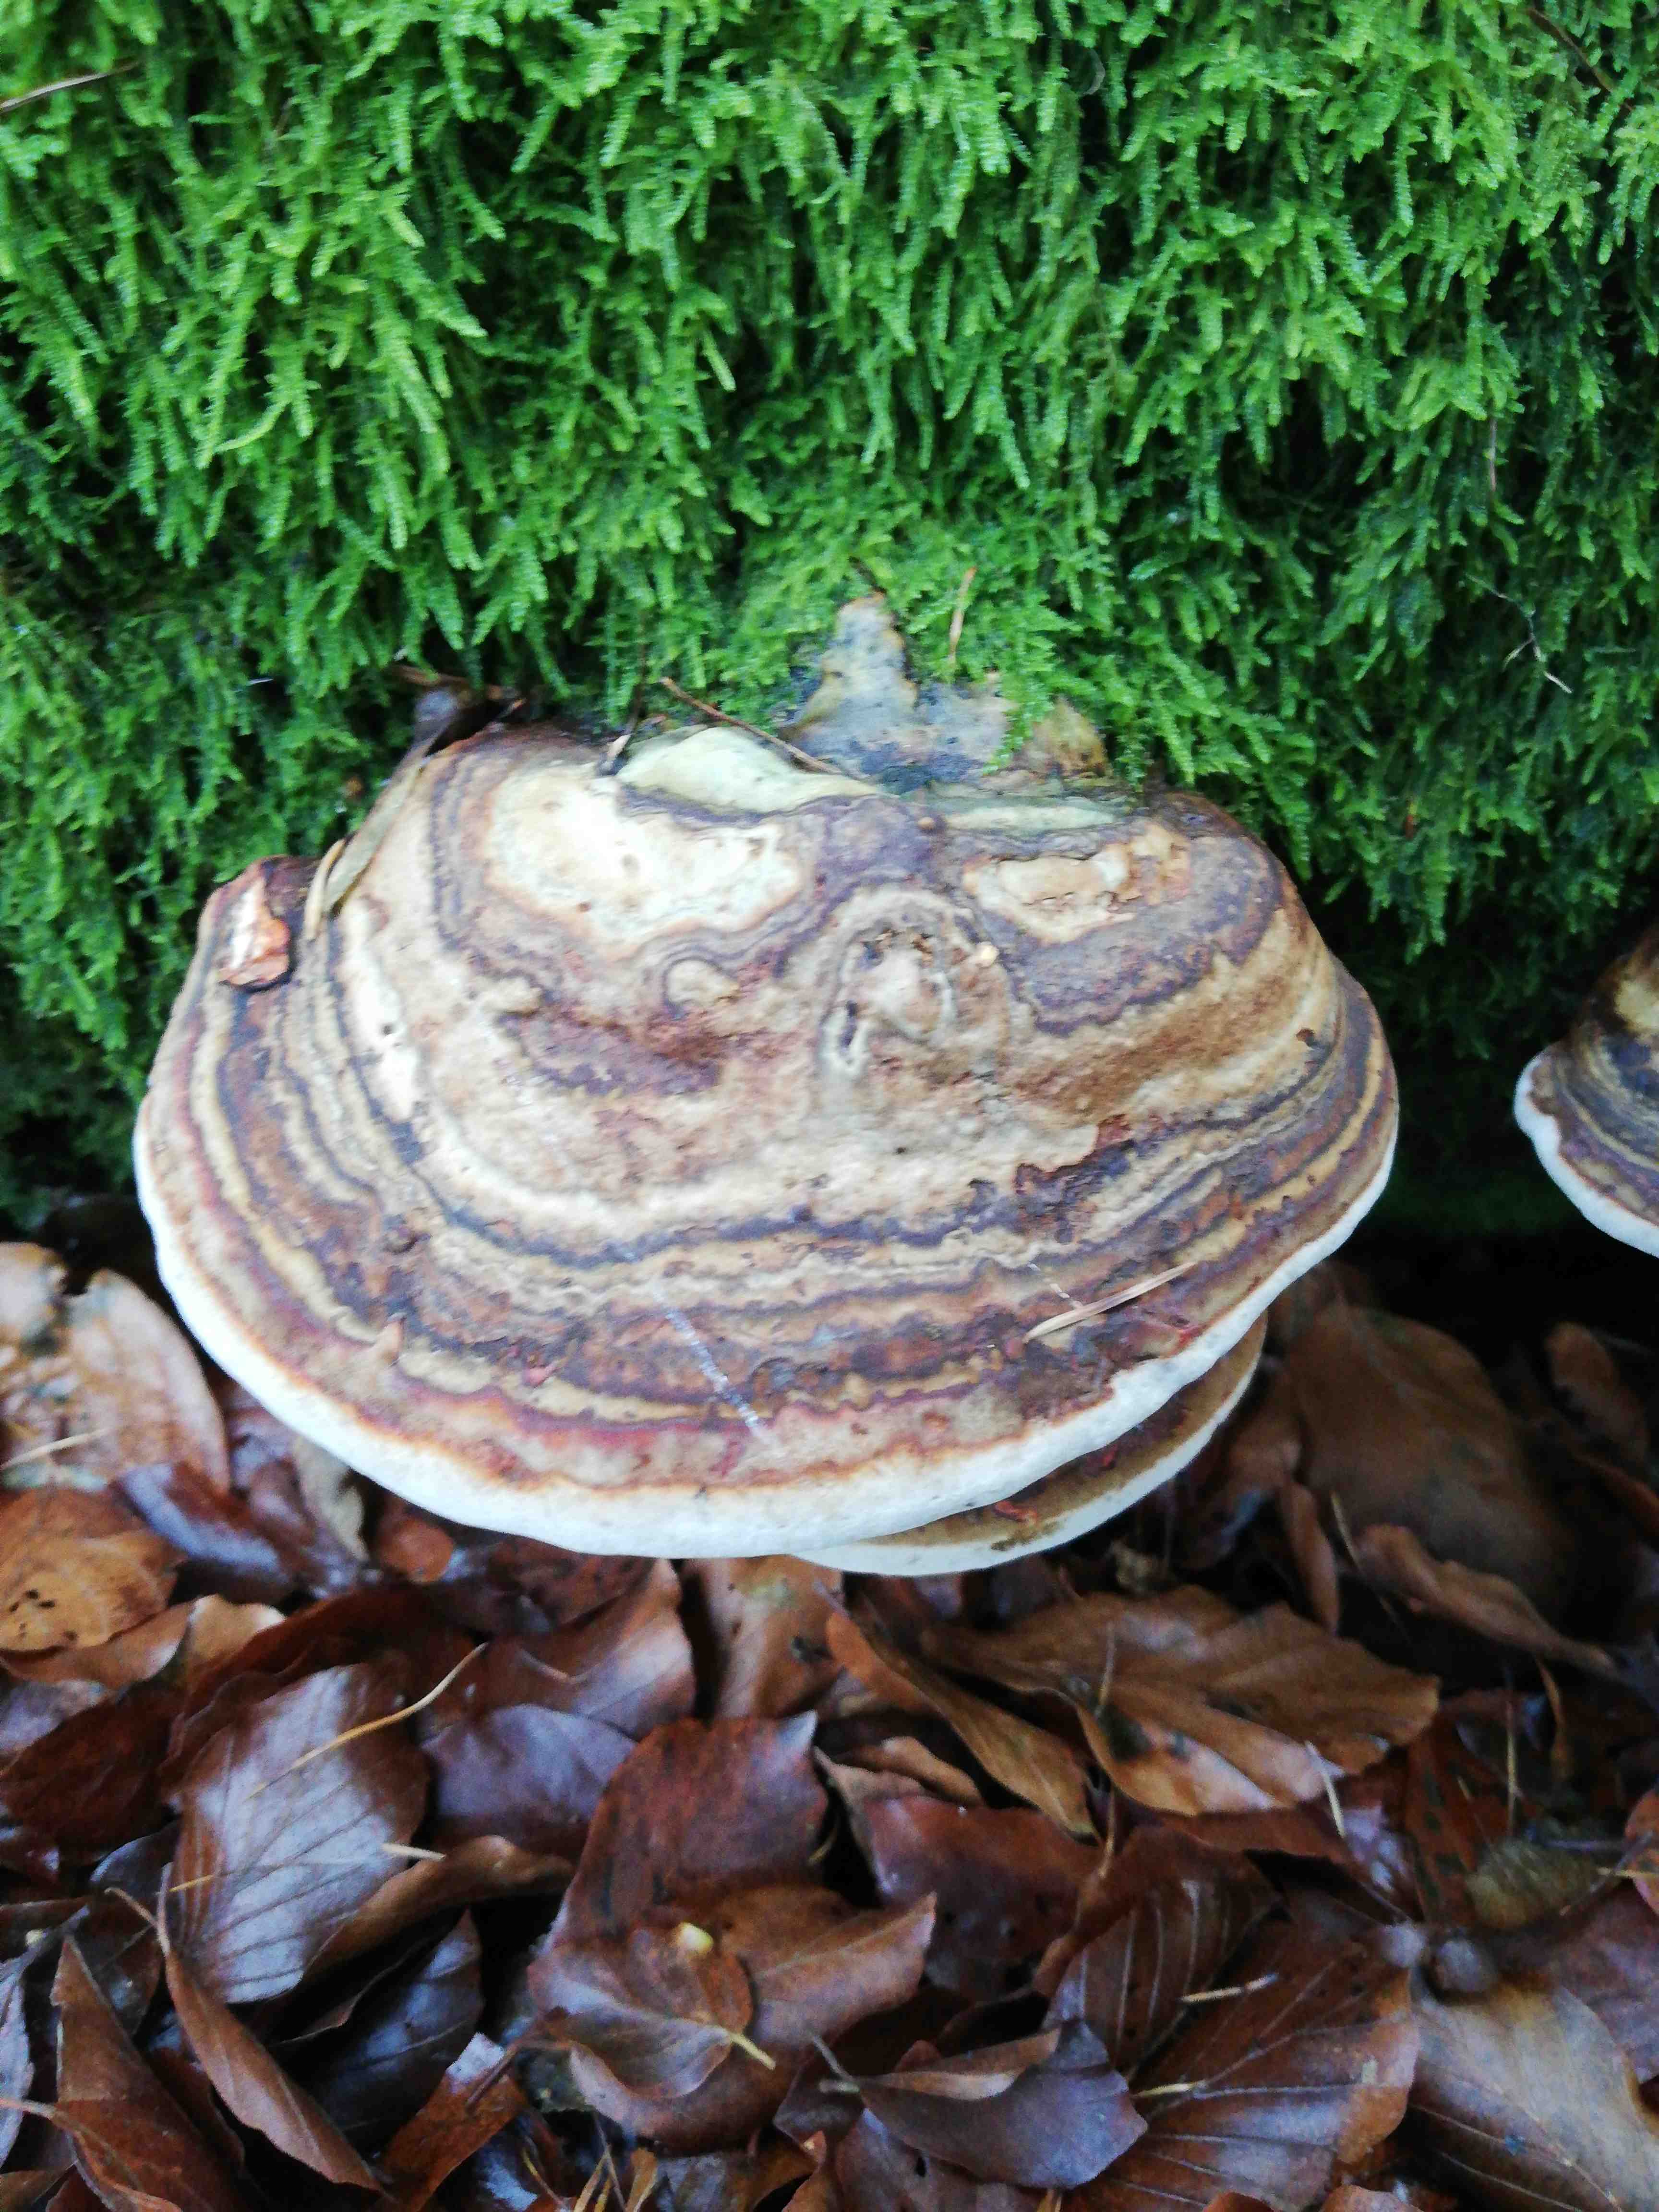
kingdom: Fungi
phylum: Basidiomycota
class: Agaricomycetes
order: Polyporales
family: Polyporaceae
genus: Fomes
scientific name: Fomes fomentarius
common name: tøndersvamp
